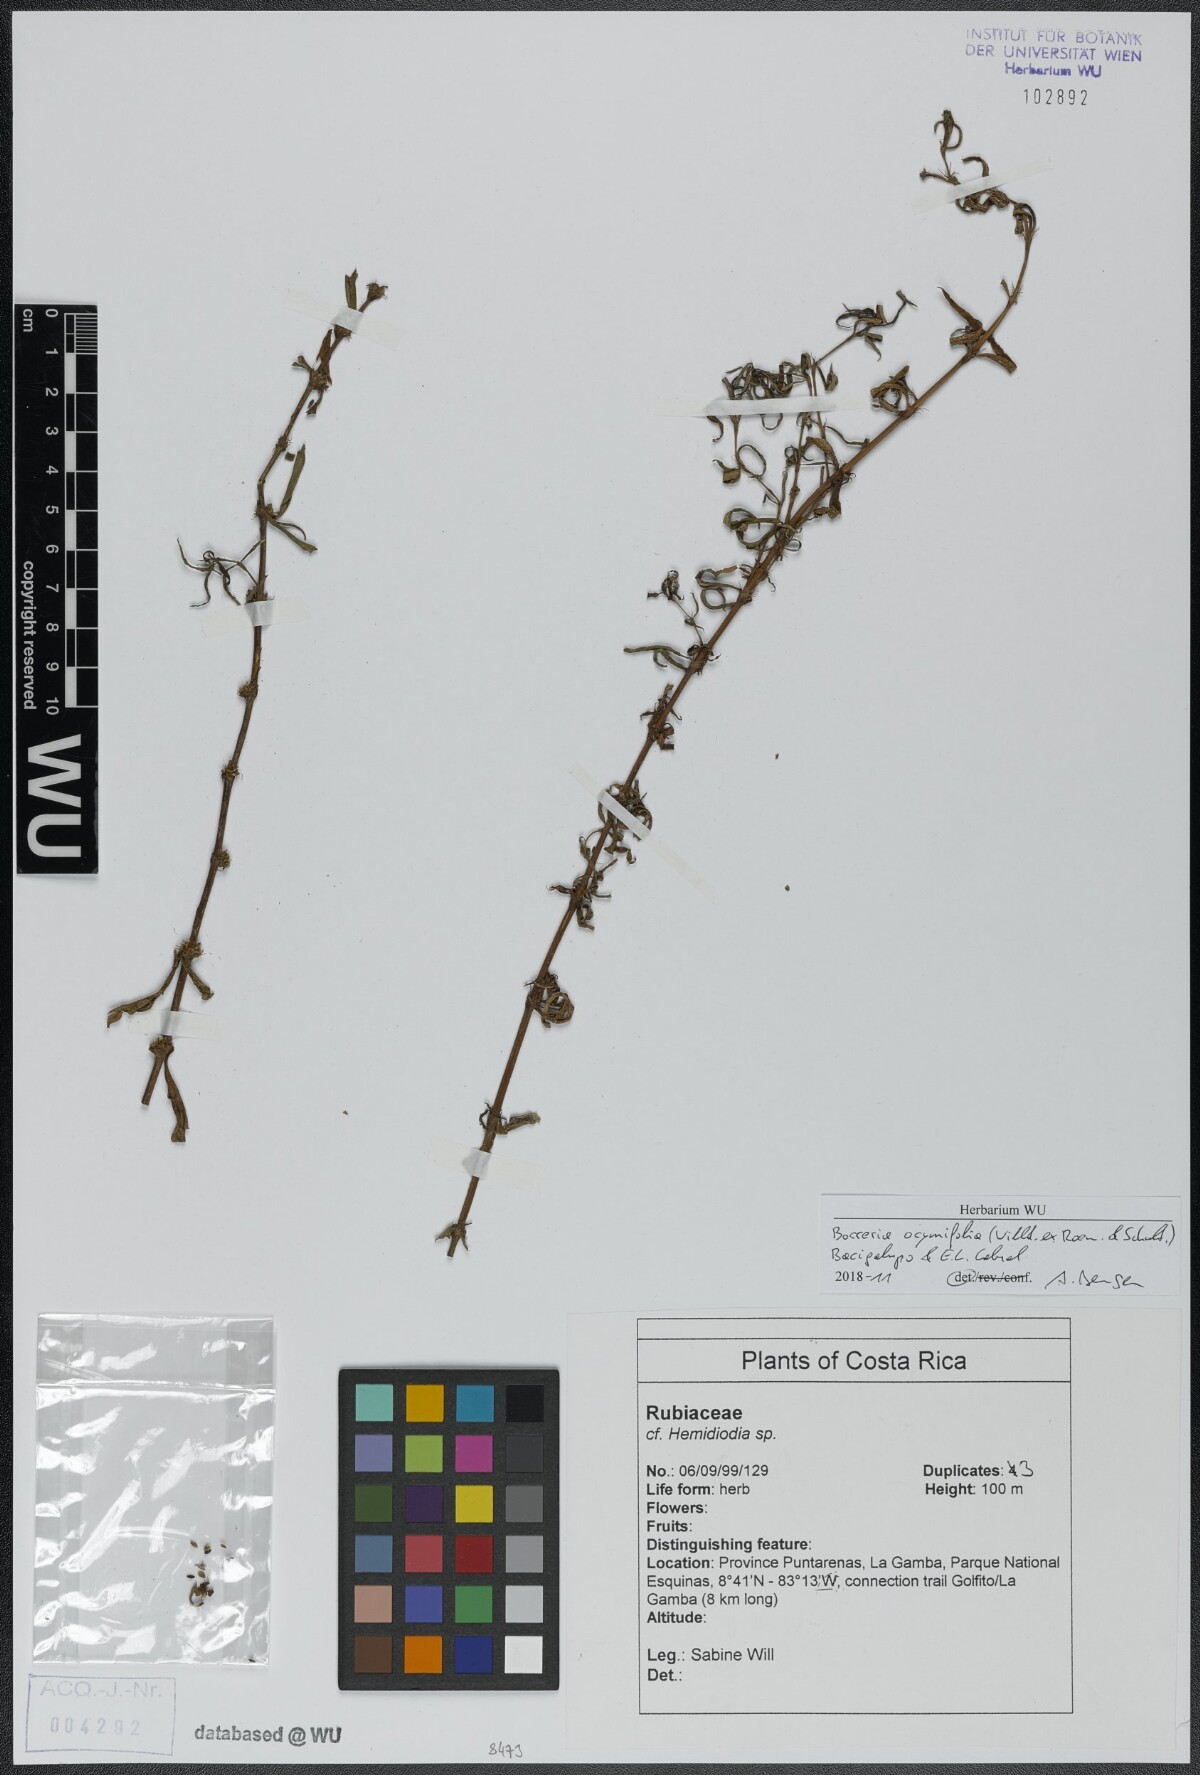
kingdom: Plantae
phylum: Tracheophyta
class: Magnoliopsida
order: Gentianales
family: Rubiaceae
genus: Spermacoce
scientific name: Spermacoce ocymifolia
